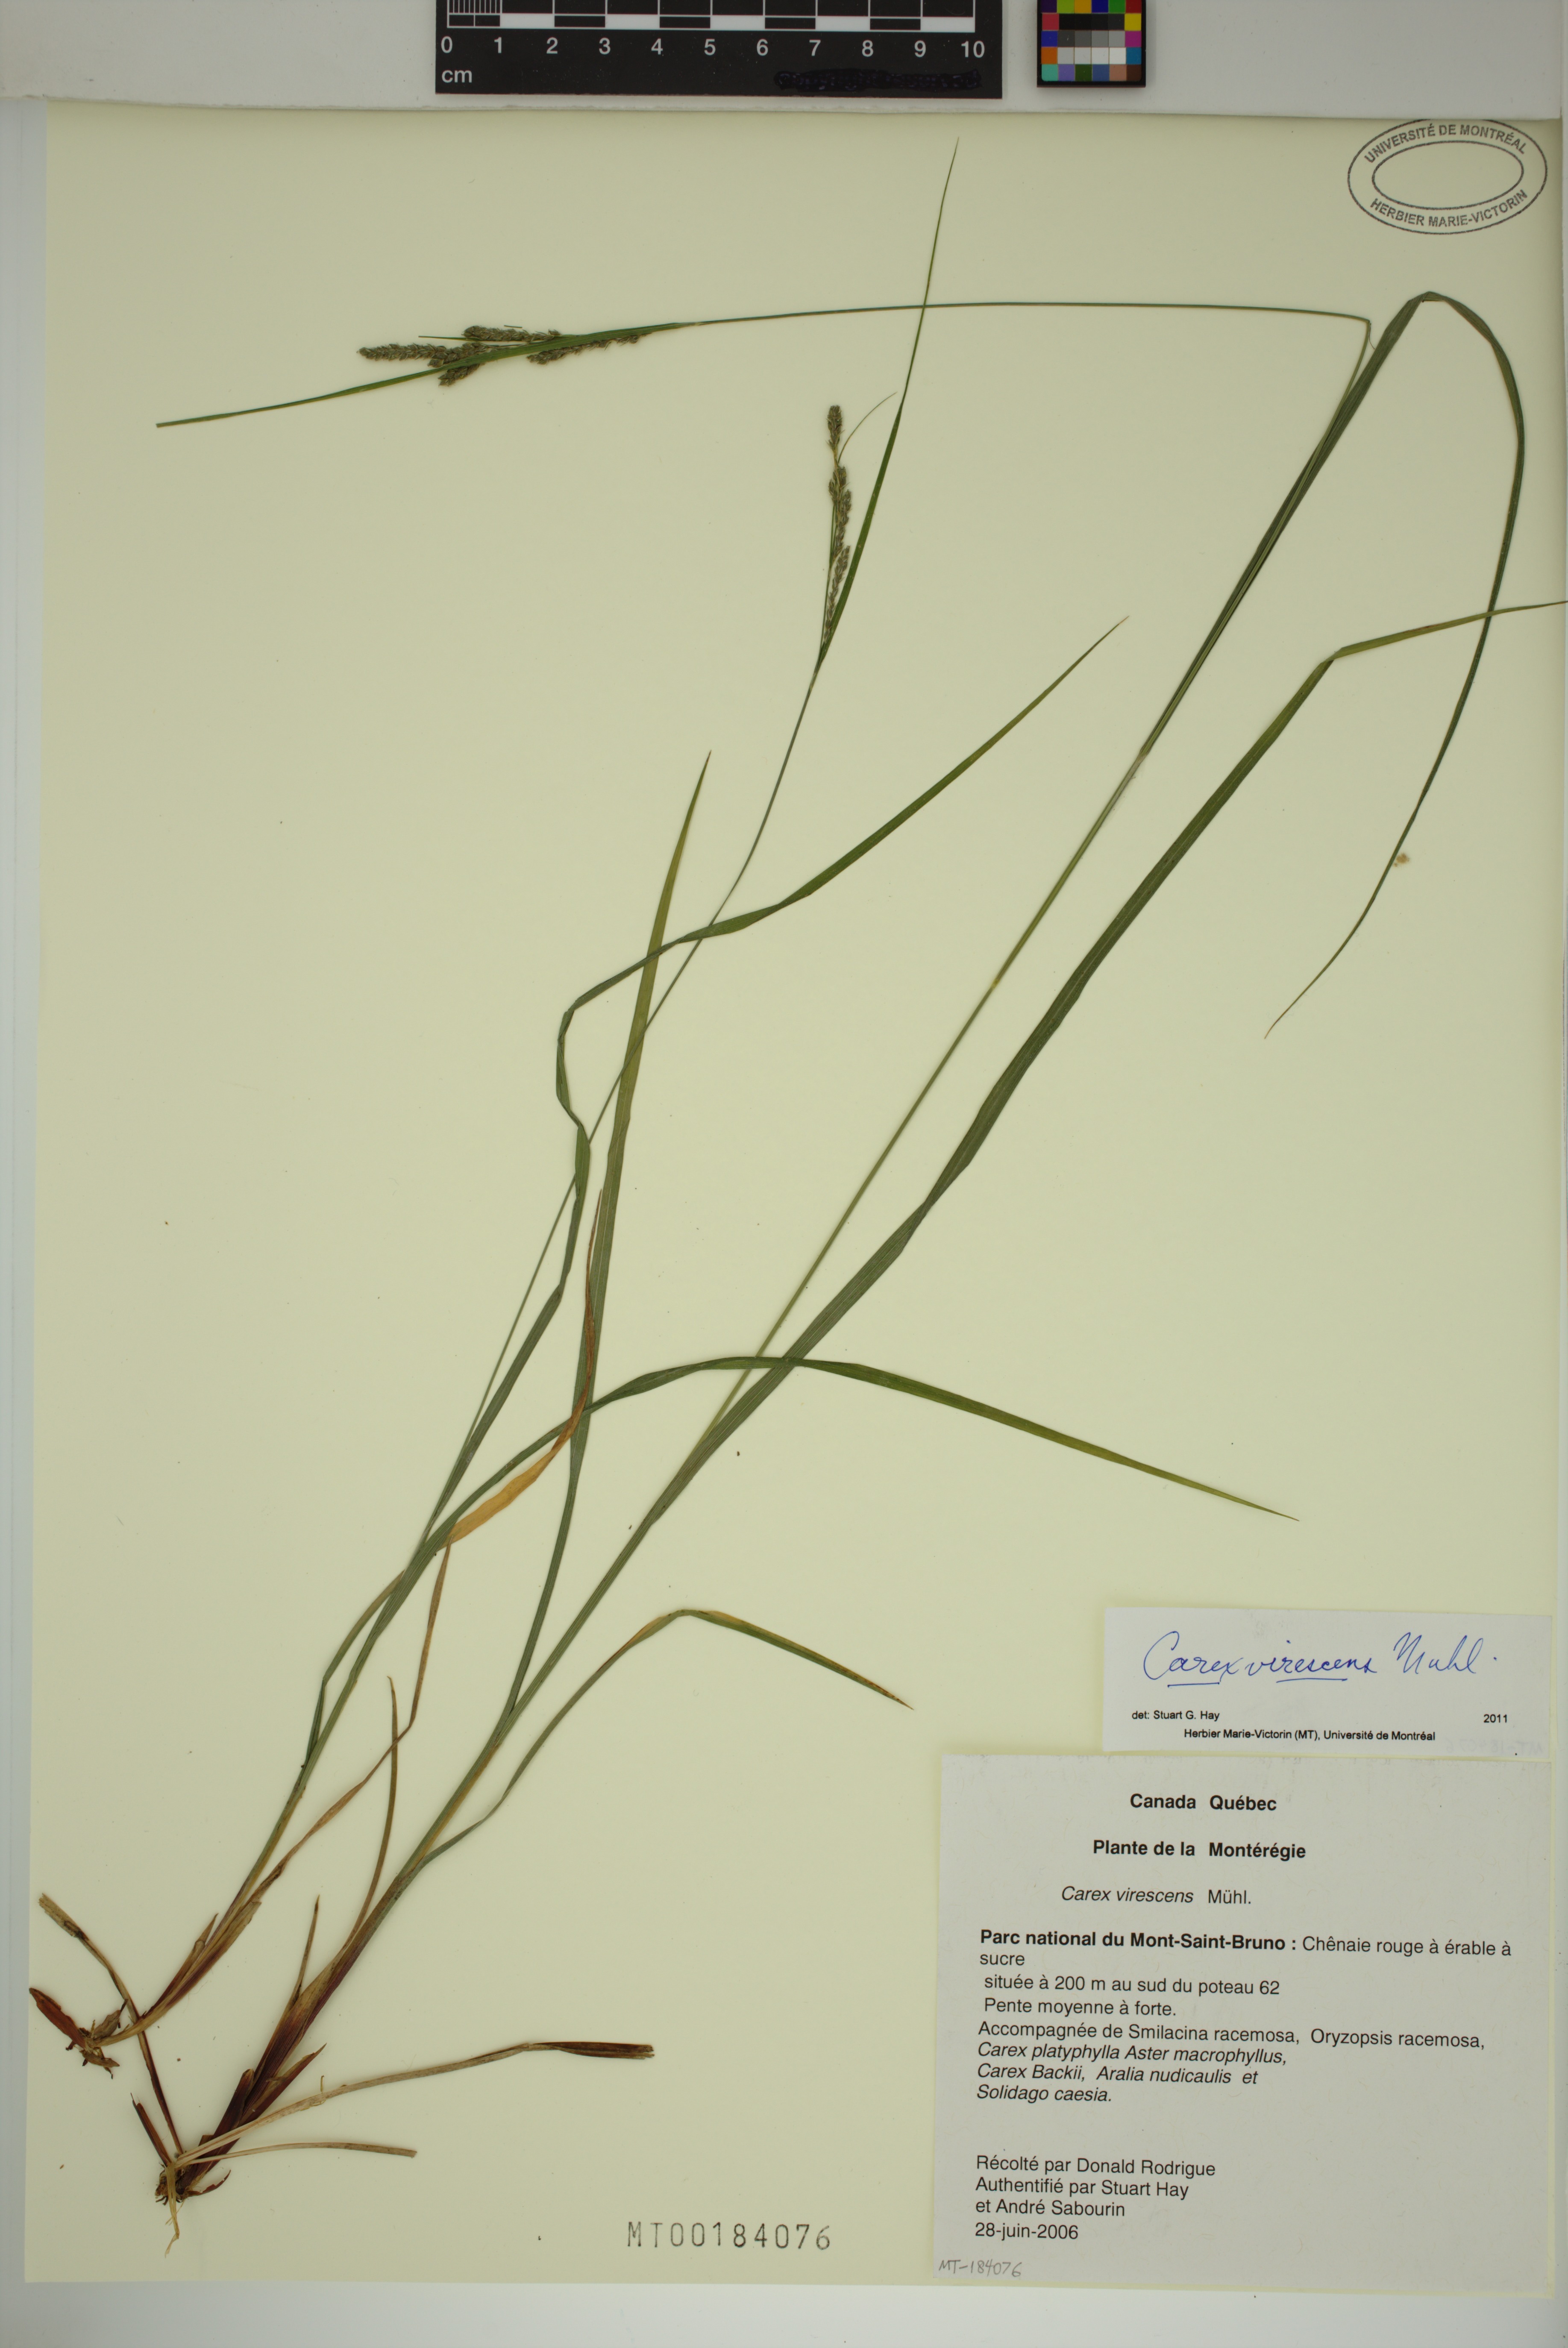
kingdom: Plantae
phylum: Tracheophyta
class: Liliopsida
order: Poales
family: Cyperaceae
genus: Carex
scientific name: Carex virescens
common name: Ribbed sedge
